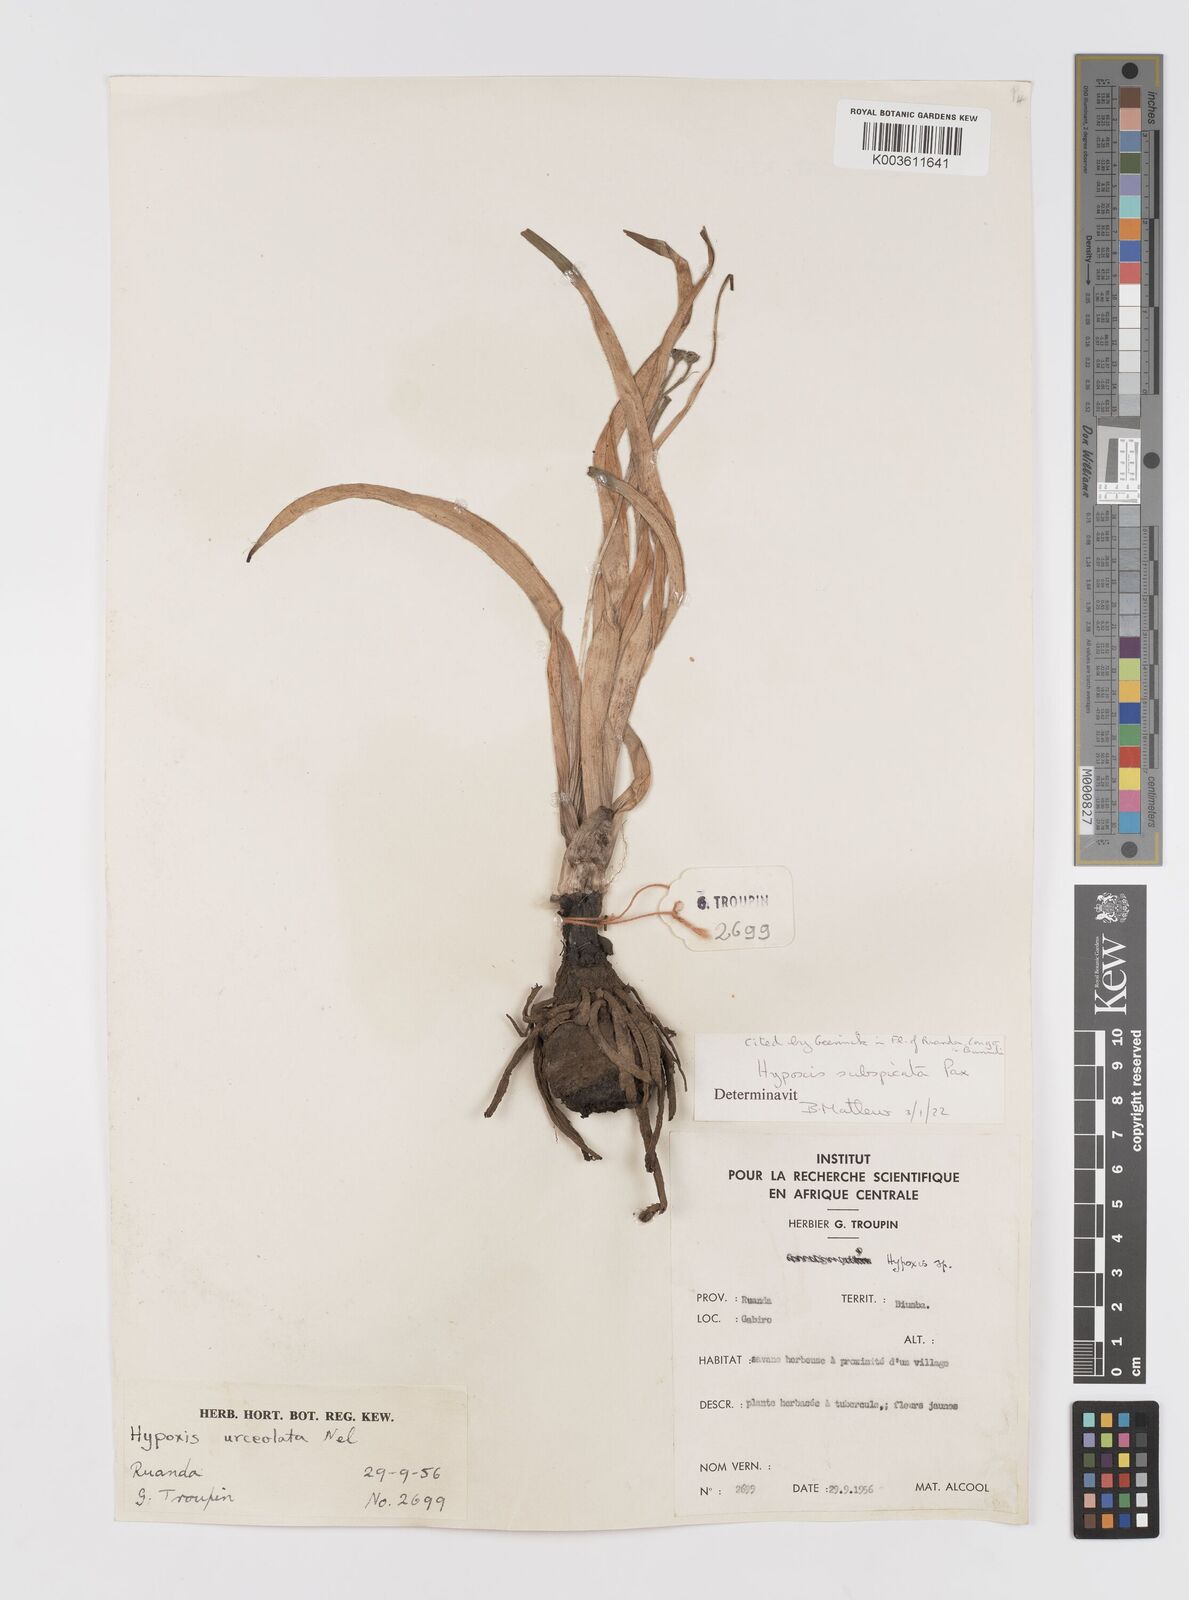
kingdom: Plantae
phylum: Tracheophyta
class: Liliopsida
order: Asparagales
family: Hypoxidaceae
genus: Hypoxis
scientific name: Hypoxis polystachya
